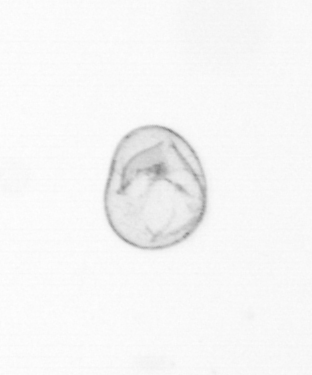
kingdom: Chromista
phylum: Myzozoa
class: Dinophyceae
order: Noctilucales
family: Noctilucaceae
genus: Noctiluca
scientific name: Noctiluca scintillans
